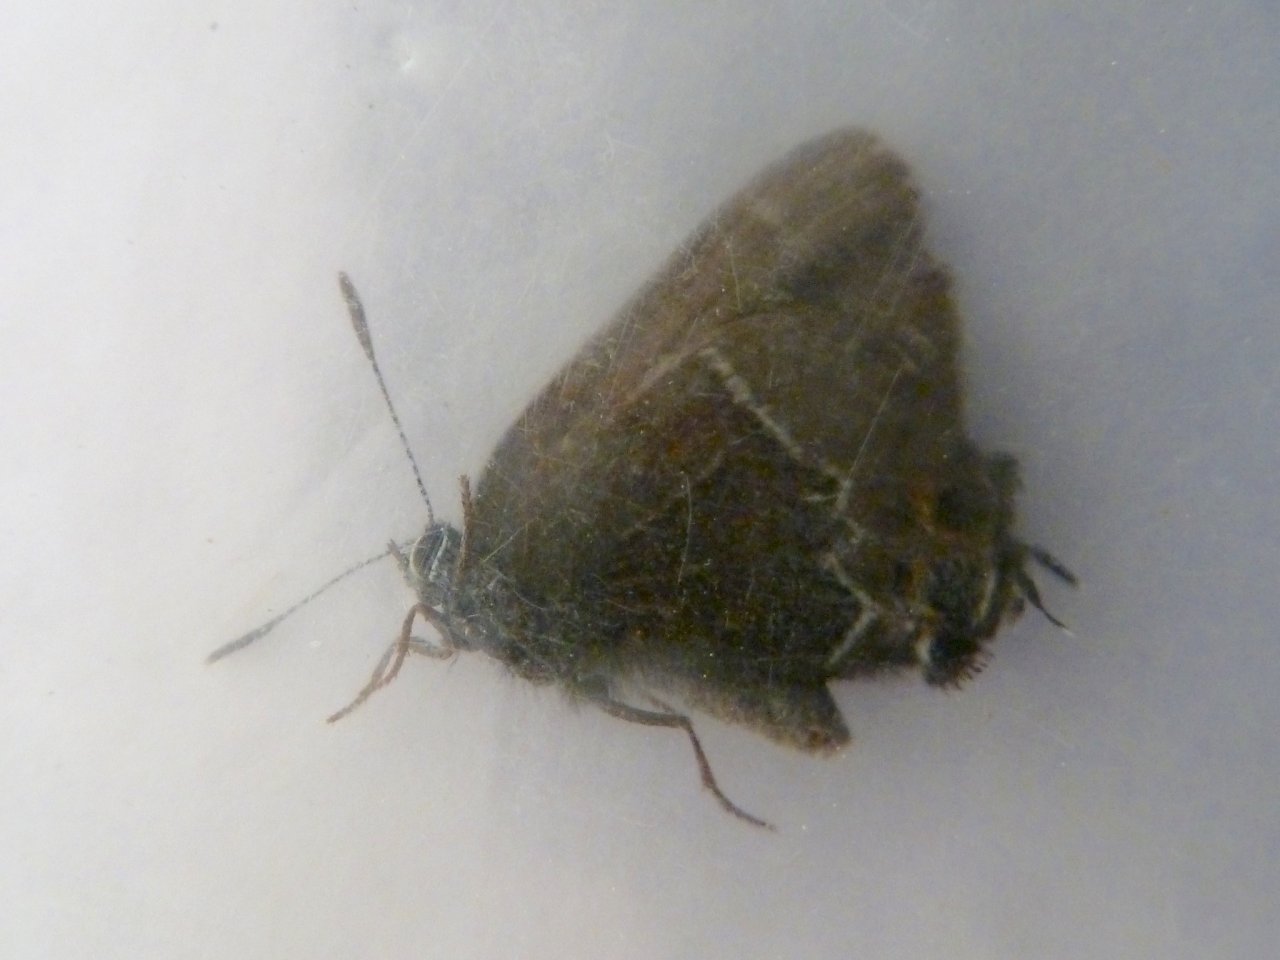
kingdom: Animalia
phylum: Arthropoda
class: Insecta
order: Lepidoptera
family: Lycaenidae
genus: Mitoura
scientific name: Mitoura spinetorum
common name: Thicket Hairstreak
